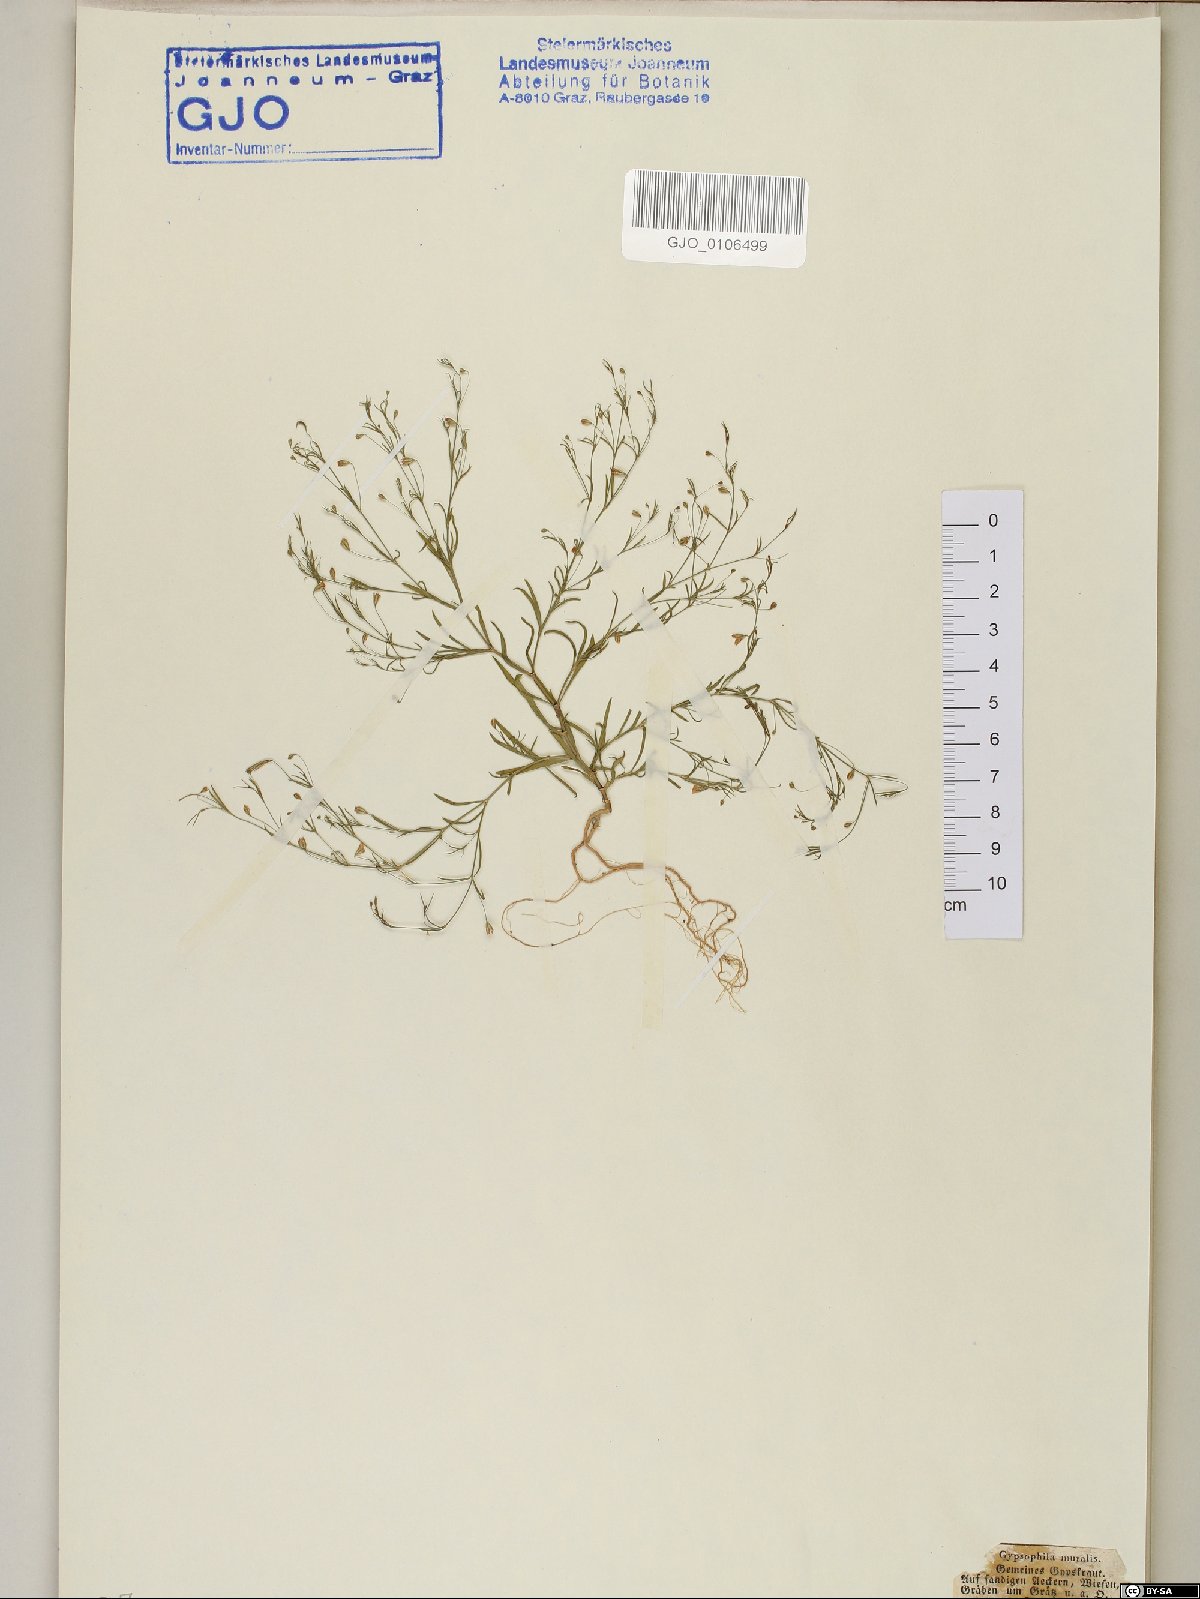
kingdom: Plantae
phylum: Tracheophyta
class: Magnoliopsida
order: Caryophyllales
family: Caryophyllaceae
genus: Psammophiliella
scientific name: Psammophiliella muralis
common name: Cushion baby's-breath
